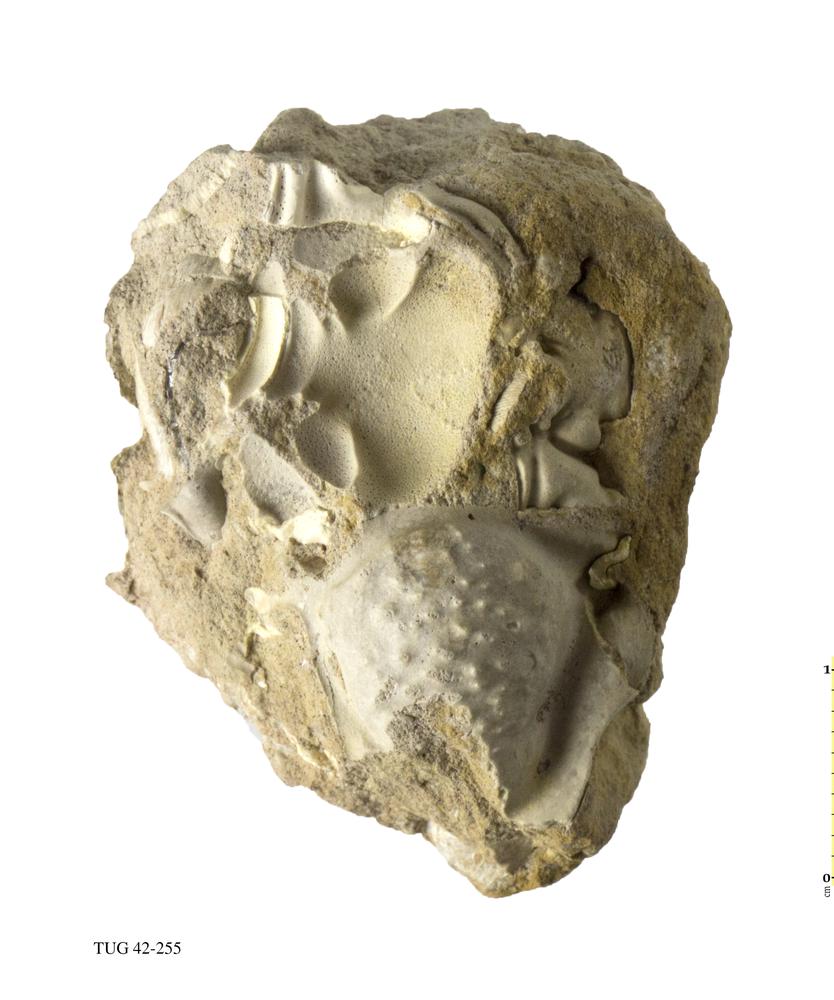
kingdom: Animalia
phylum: Arthropoda
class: Trilobita
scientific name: Trilobita
